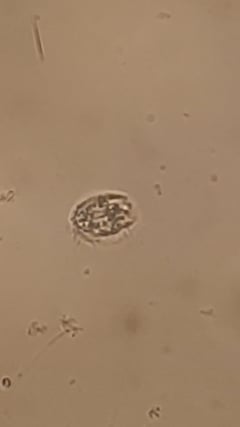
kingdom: Chromista
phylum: Ciliophora
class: Hypotrichea
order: Euplotida
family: Gastrocirrhidae
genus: Euplotopsis
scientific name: Euplotopsis affinis
